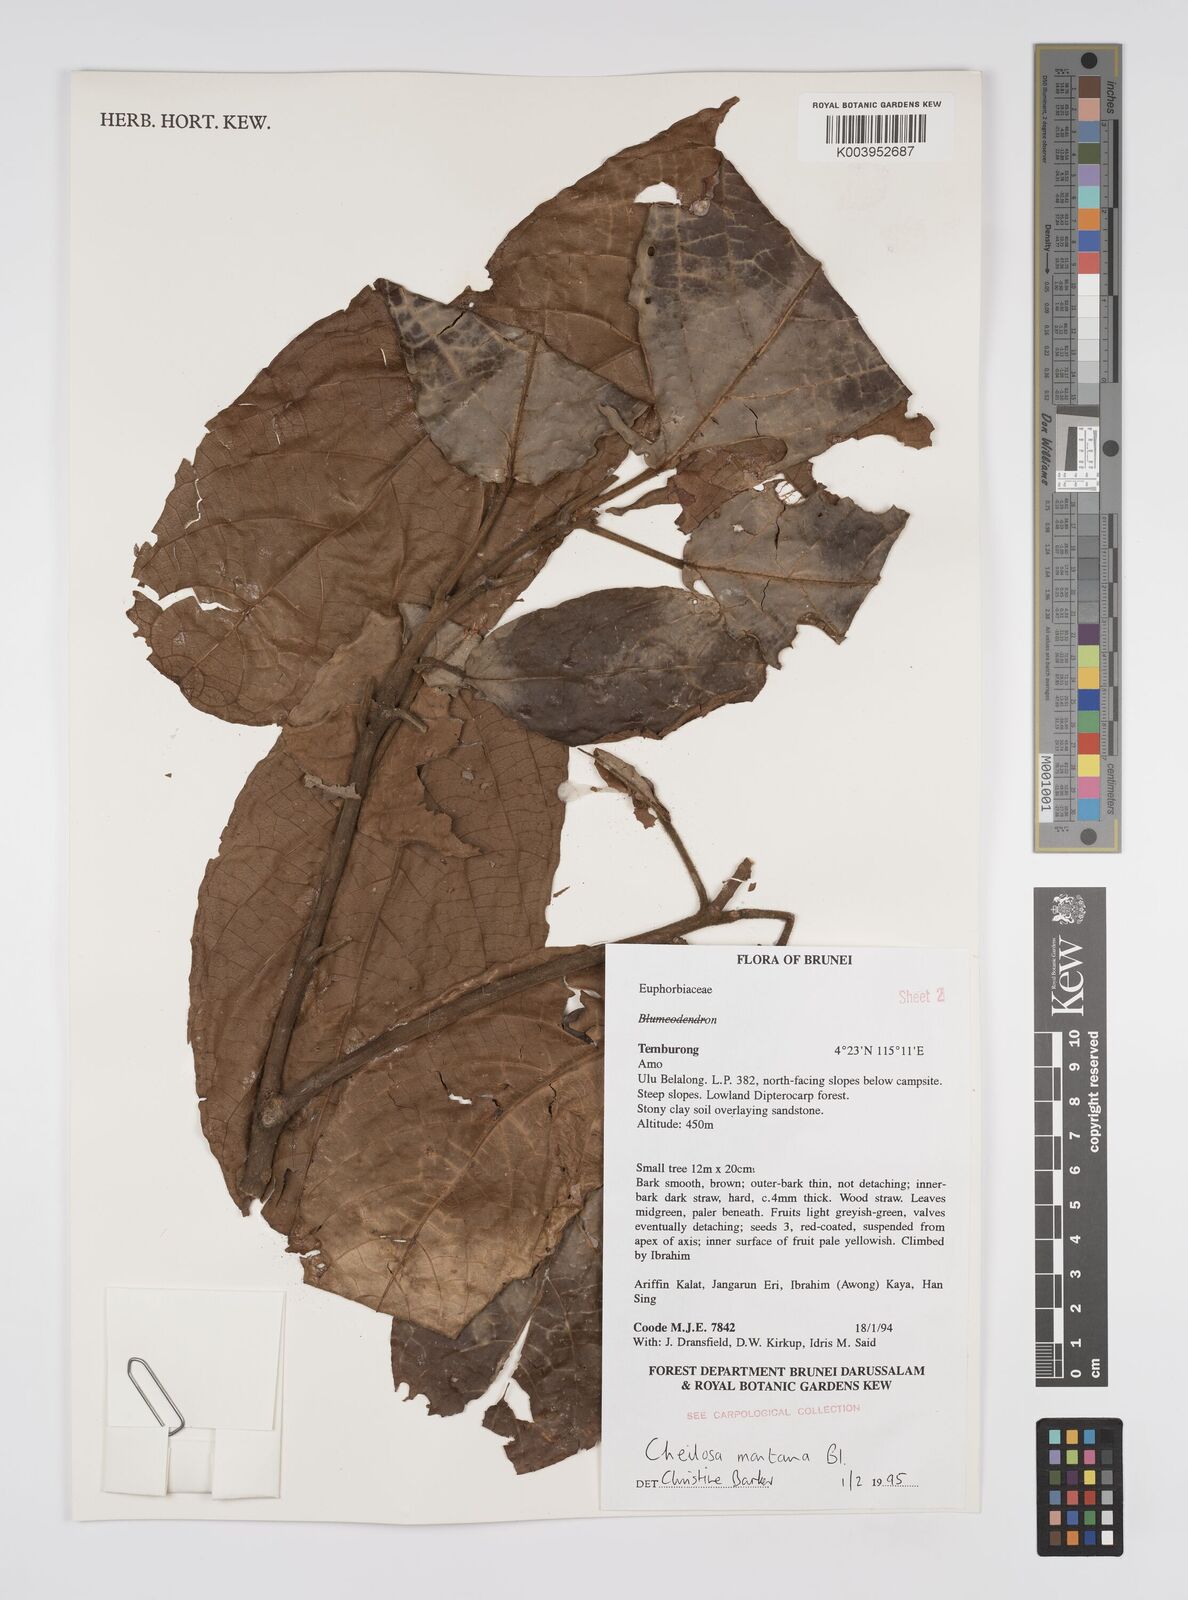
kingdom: Plantae
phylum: Tracheophyta
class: Magnoliopsida
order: Malpighiales
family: Euphorbiaceae
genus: Cheilosa
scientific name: Cheilosa montana
